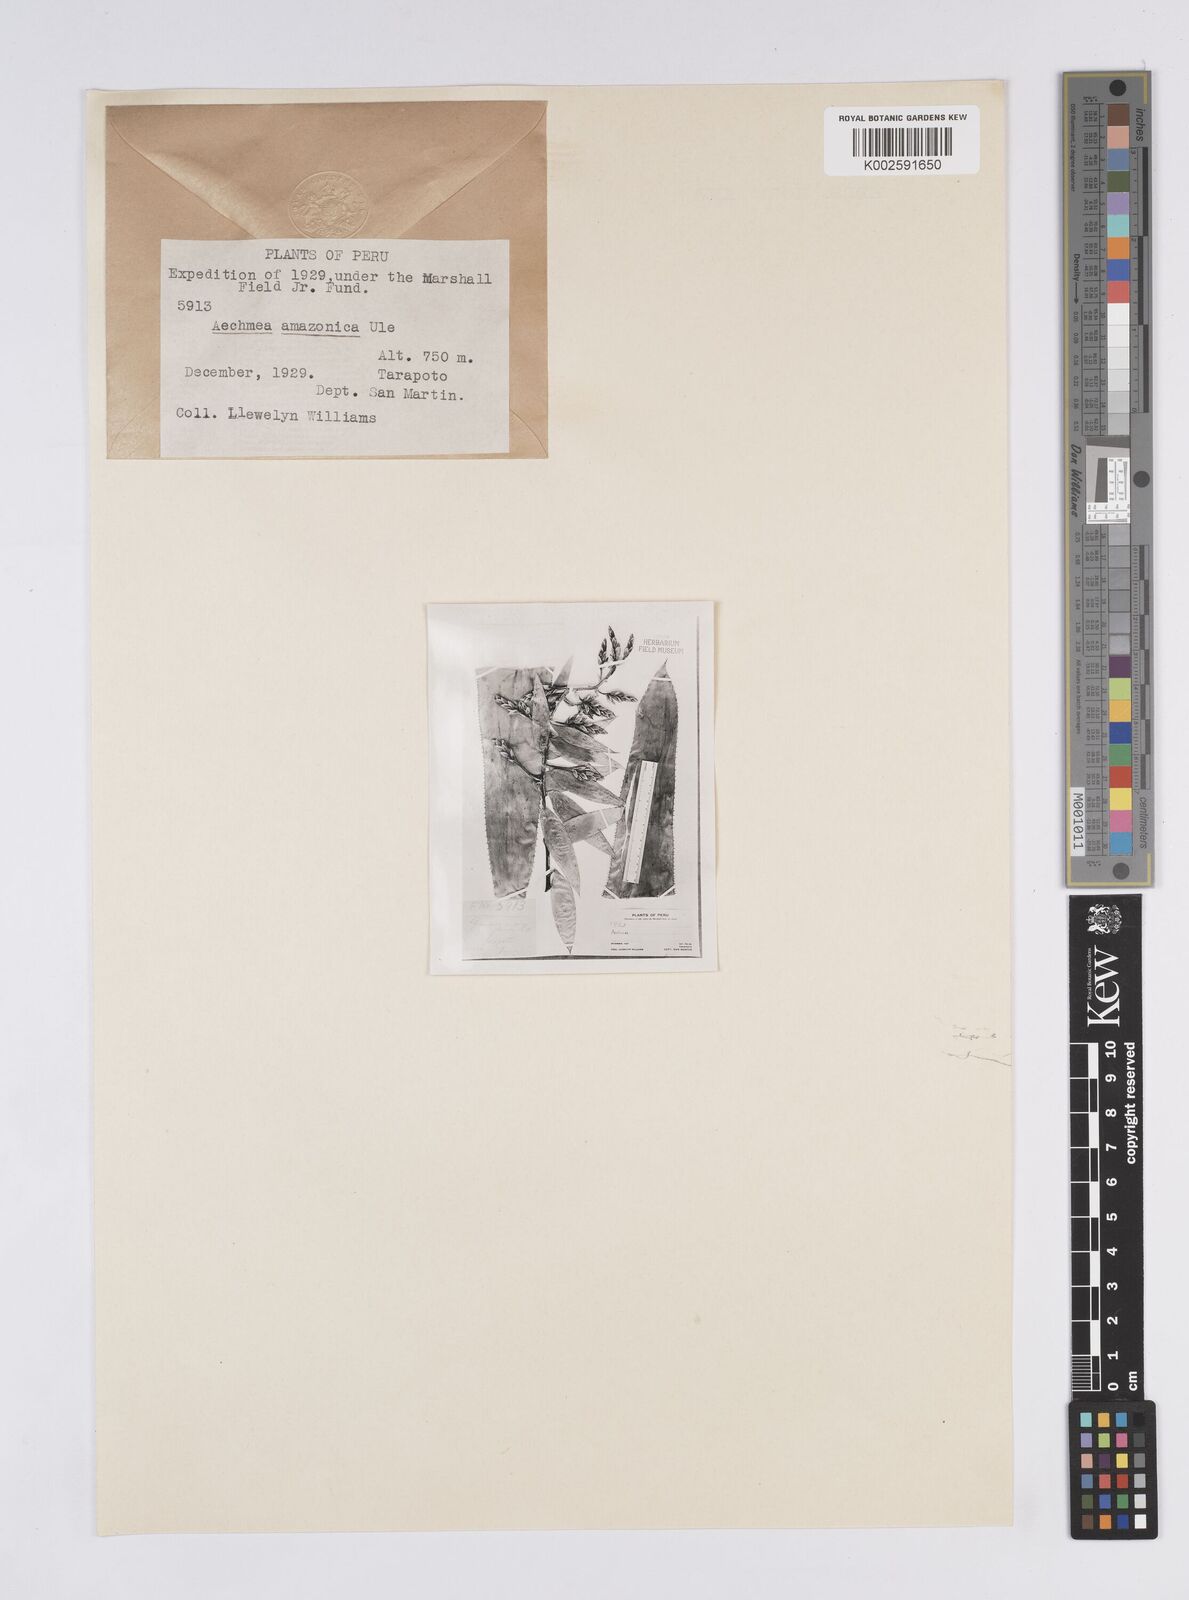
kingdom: Plantae
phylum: Tracheophyta
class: Liliopsida
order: Poales
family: Bromeliaceae
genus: Aechmea
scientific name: Aechmea chantinii
